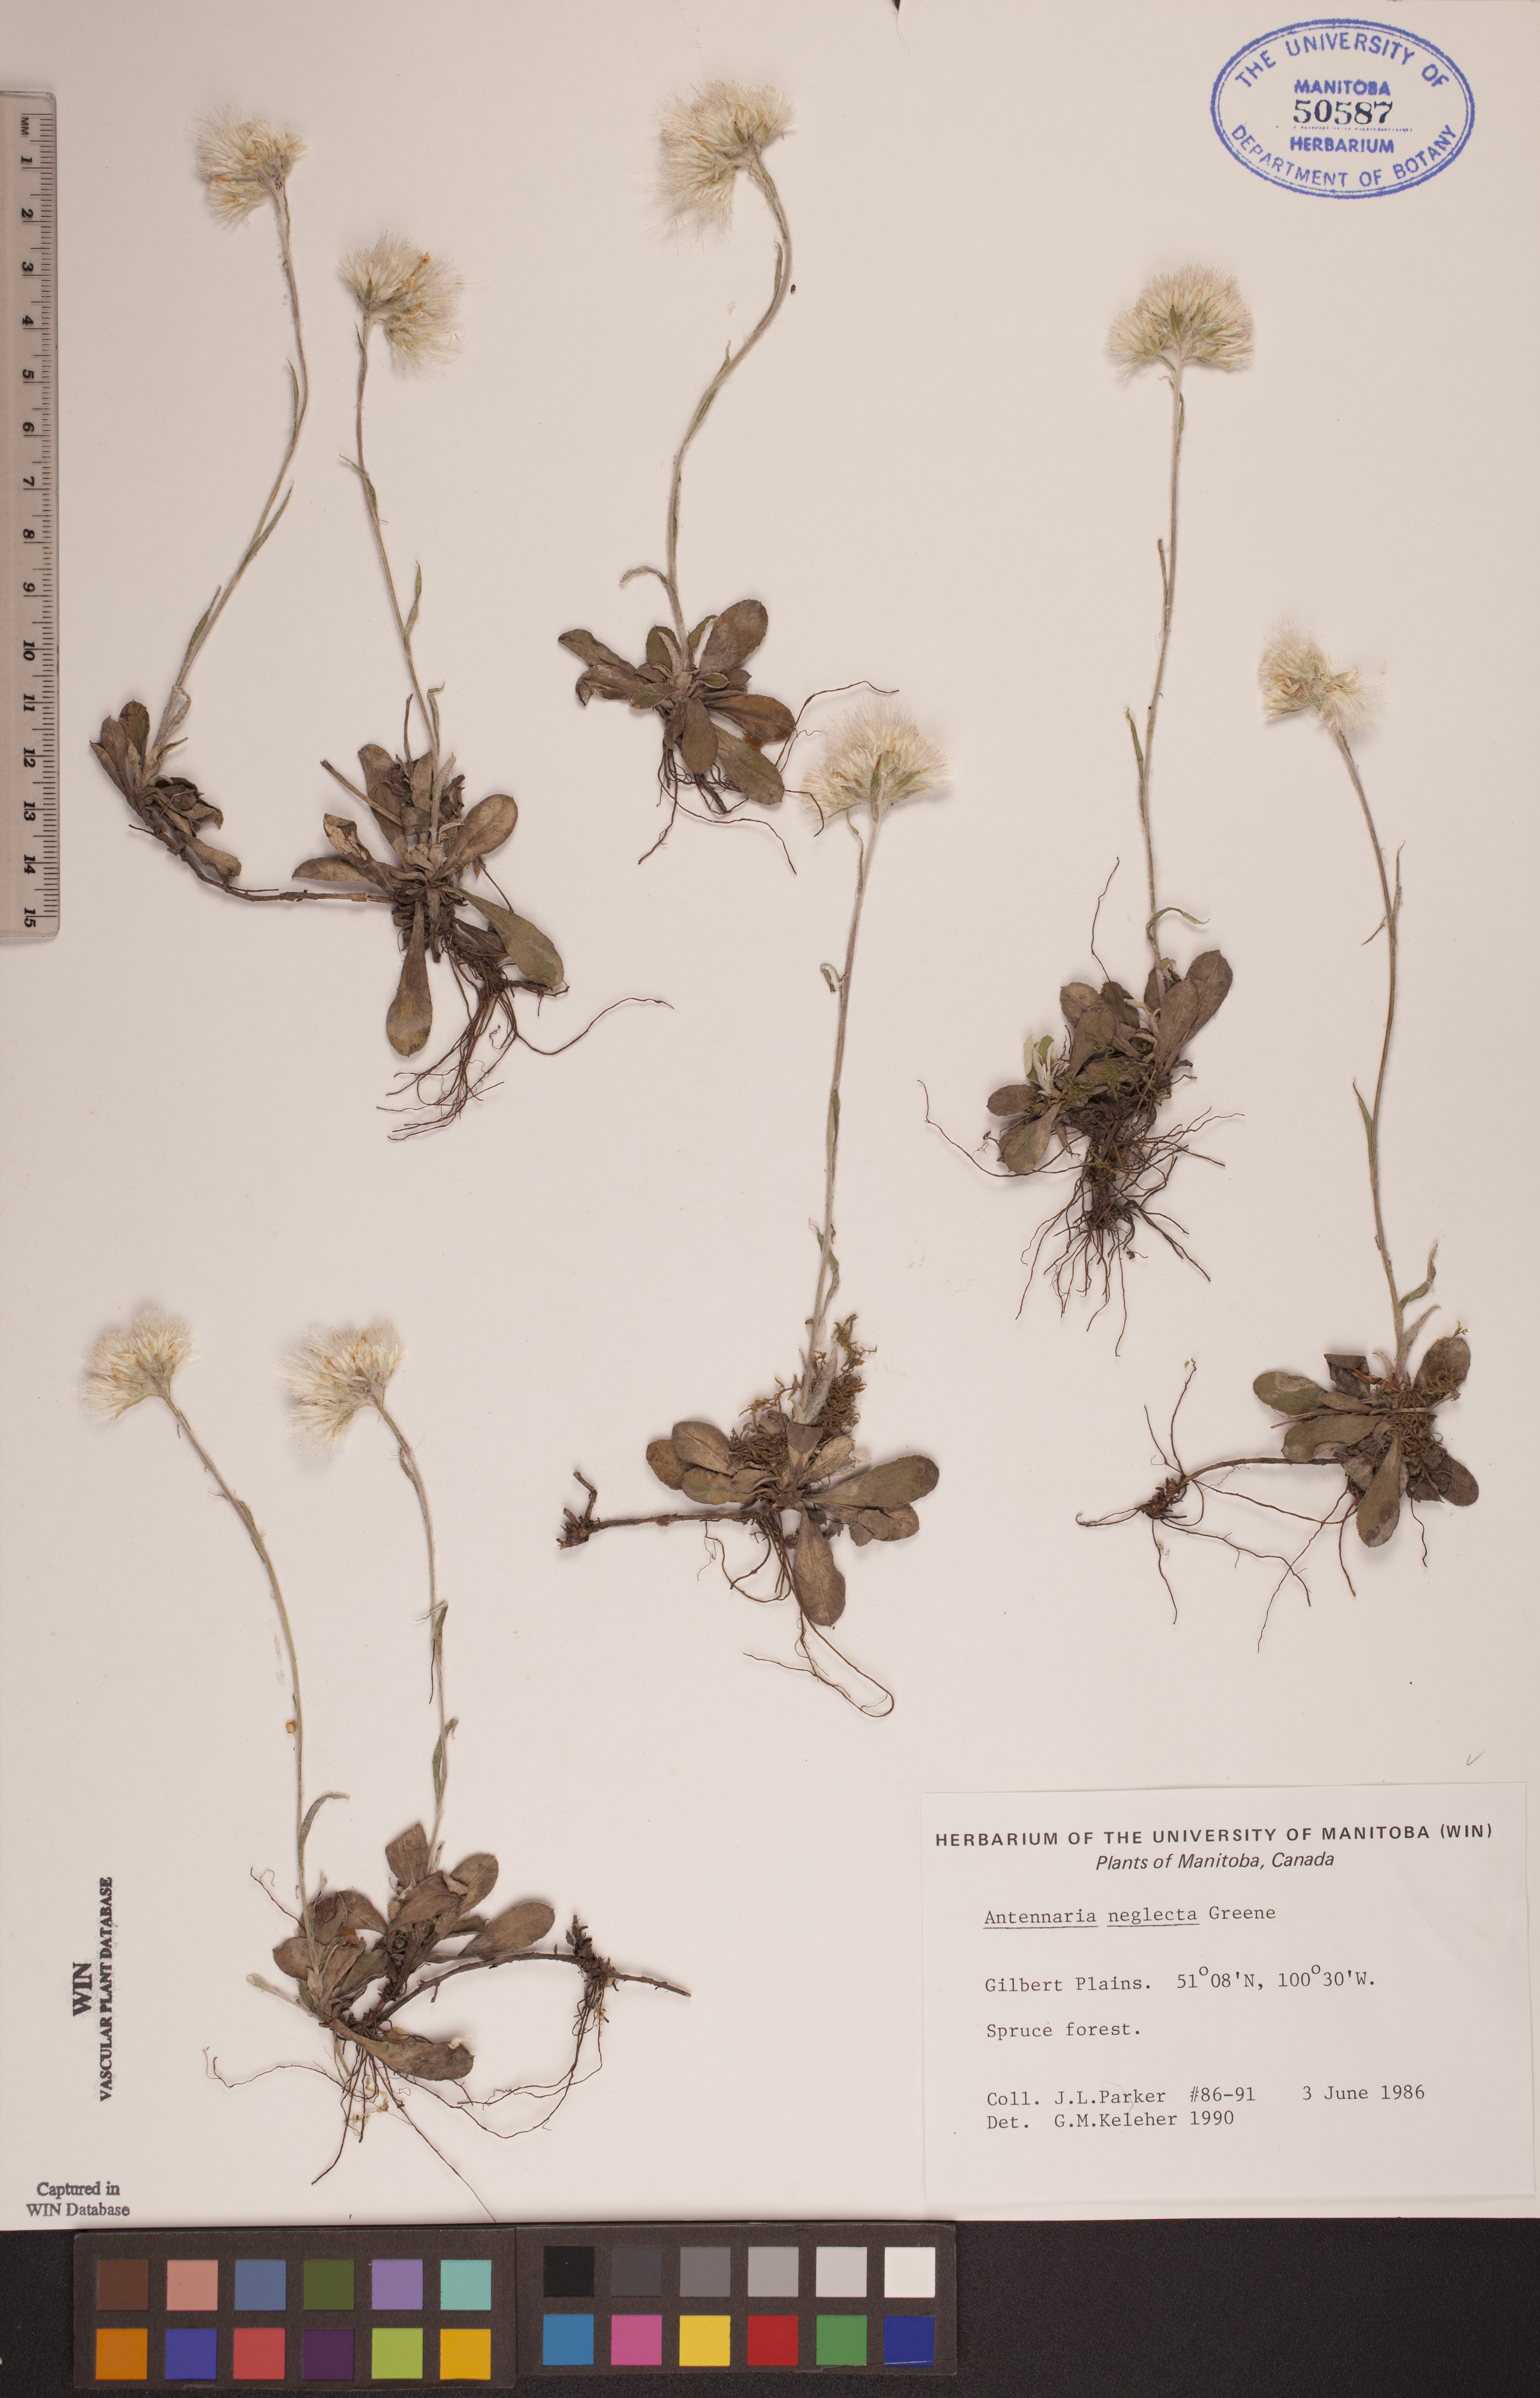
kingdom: Plantae
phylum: Tracheophyta
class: Magnoliopsida
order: Asterales
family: Asteraceae
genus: Antennaria
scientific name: Antennaria neglecta
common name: Field pussytoes
